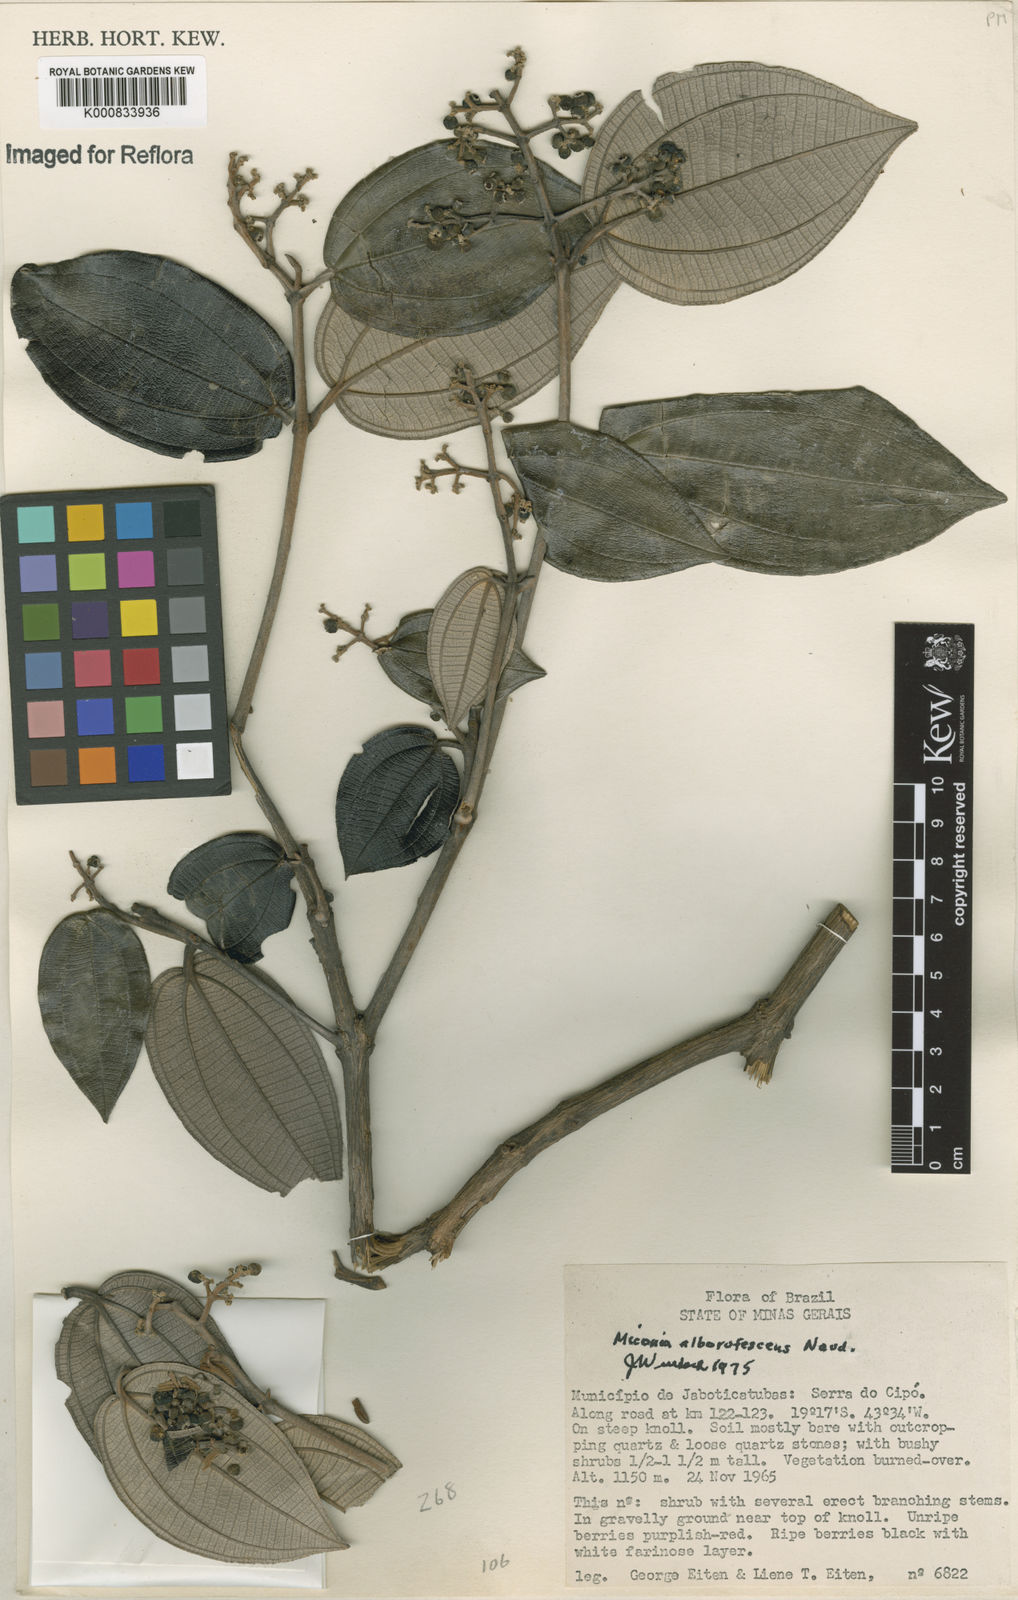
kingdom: Plantae
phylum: Tracheophyta
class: Magnoliopsida
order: Myrtales
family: Melastomataceae
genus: Miconia
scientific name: Miconia alborufescens
